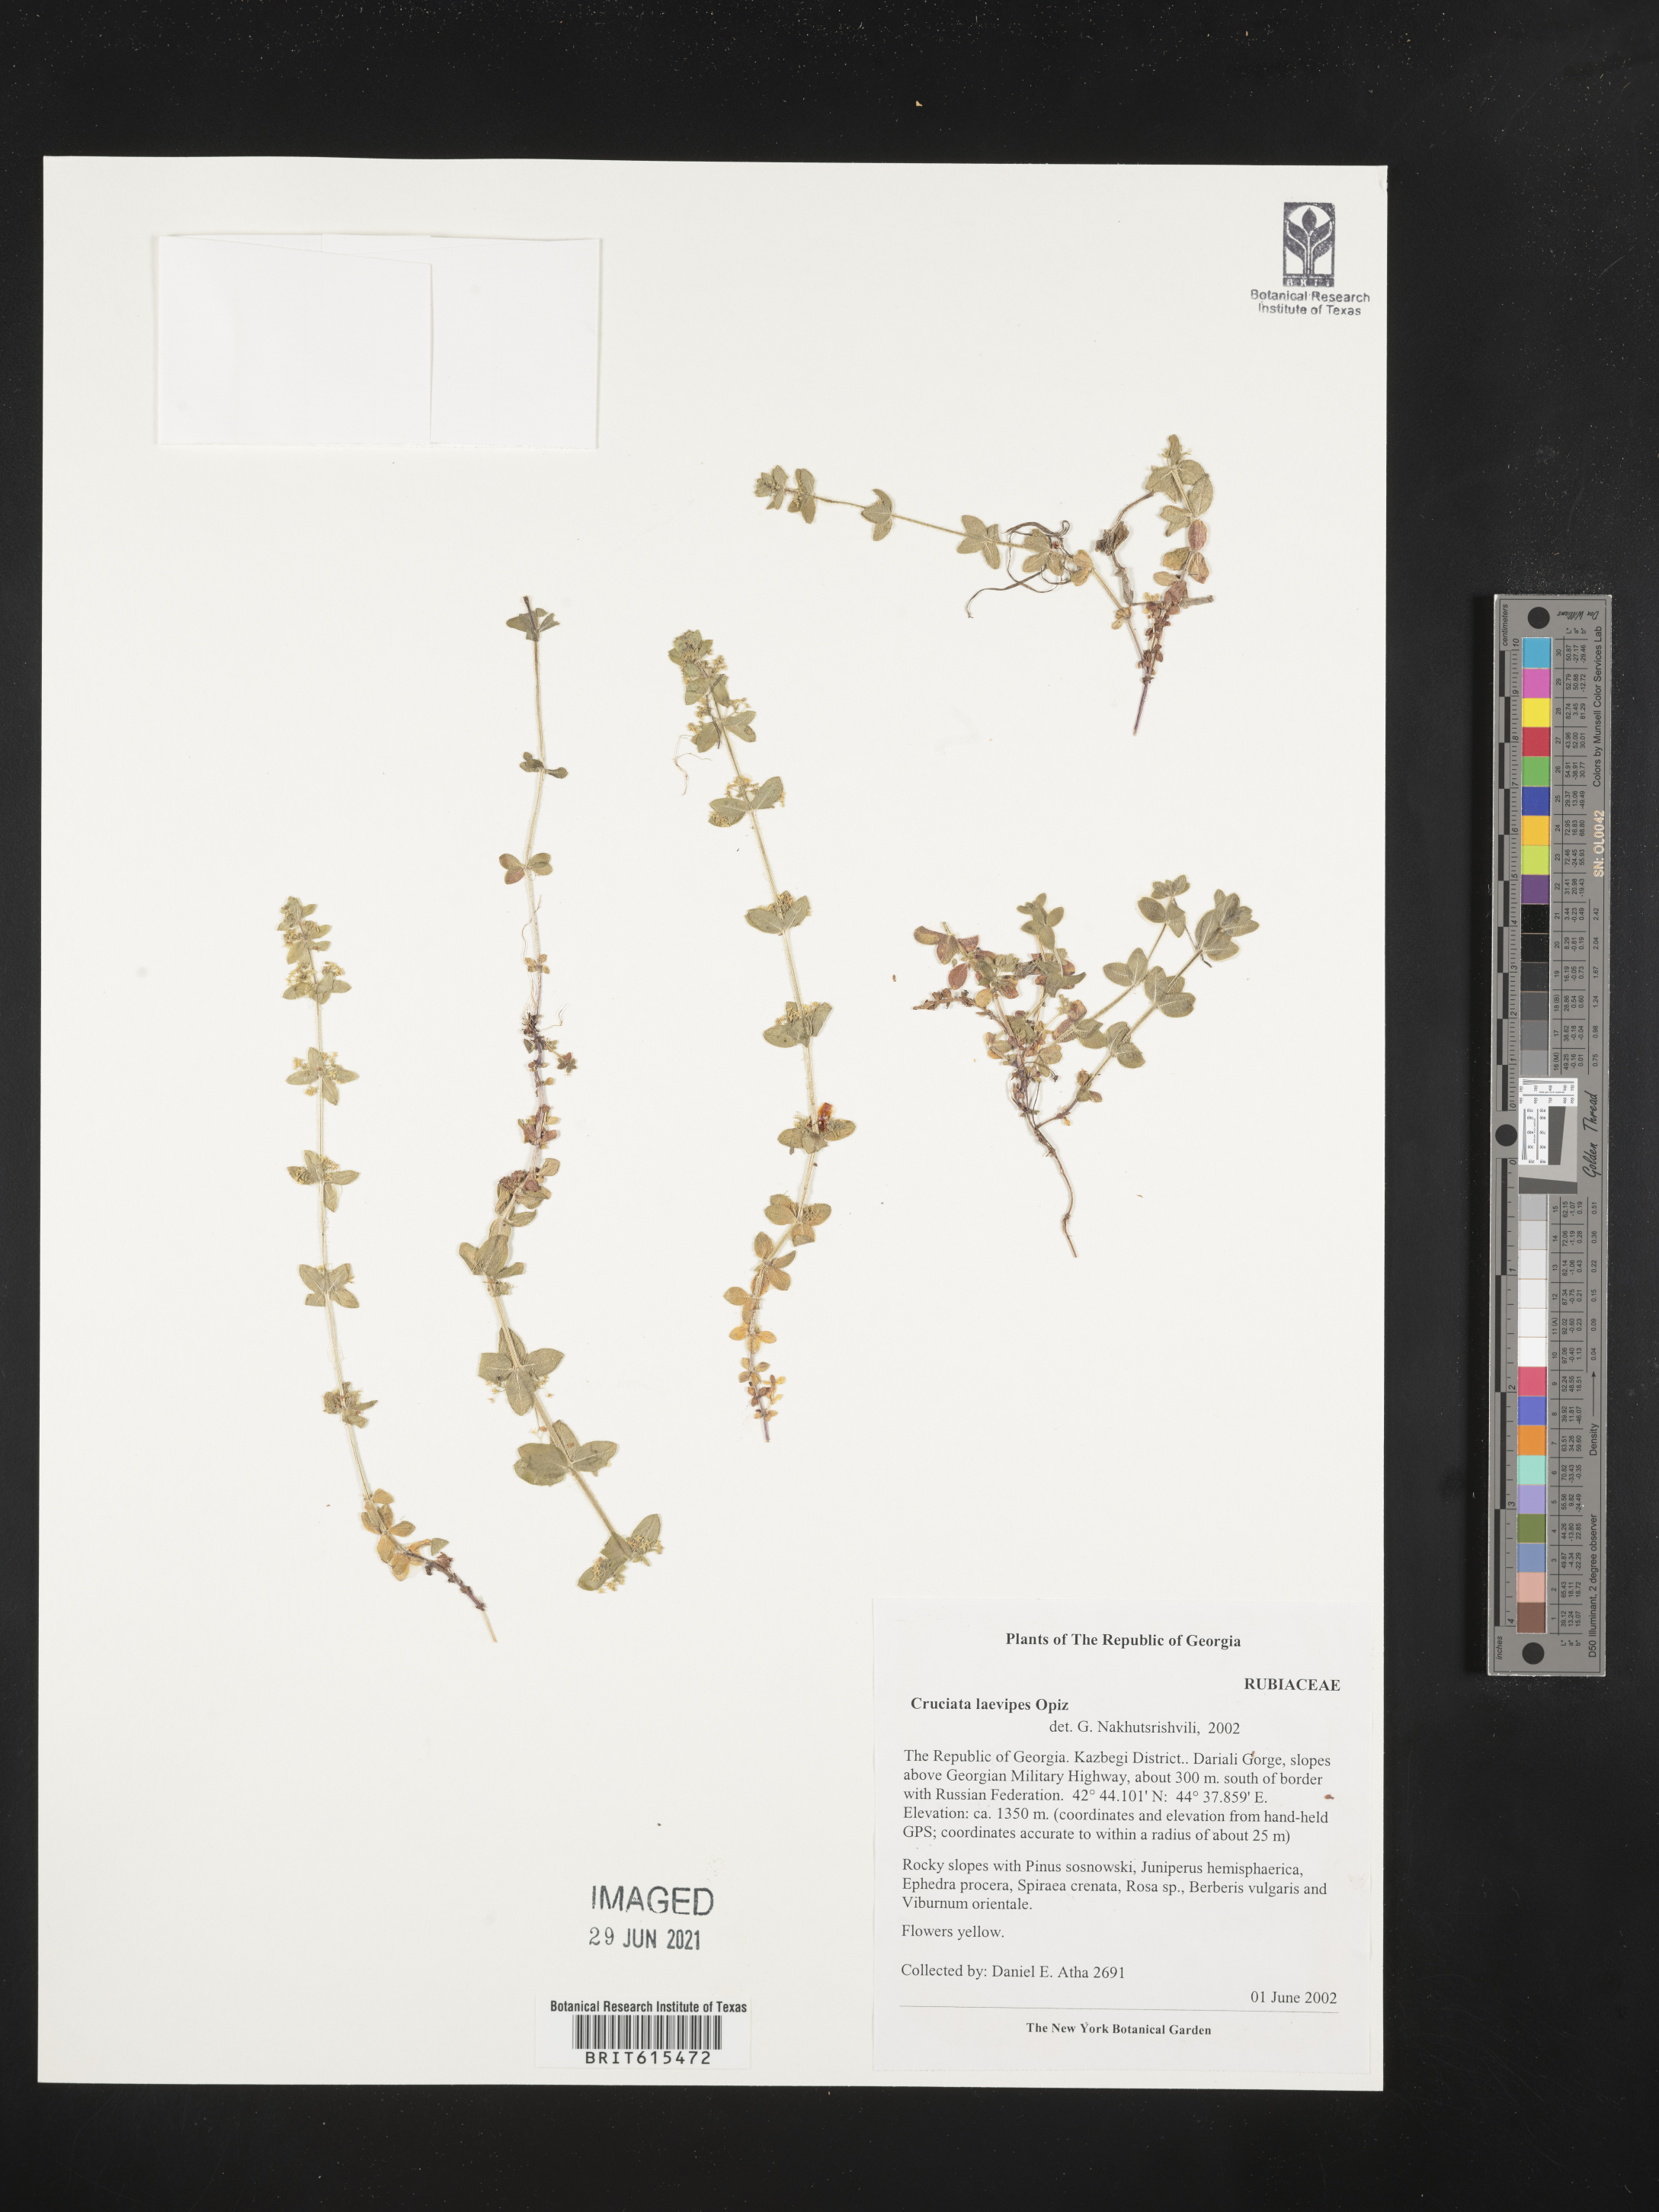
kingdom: Plantae
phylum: Tracheophyta
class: Magnoliopsida
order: Gentianales
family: Rubiaceae
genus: Cruciata
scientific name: Cruciata laevipes
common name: Crosswort
